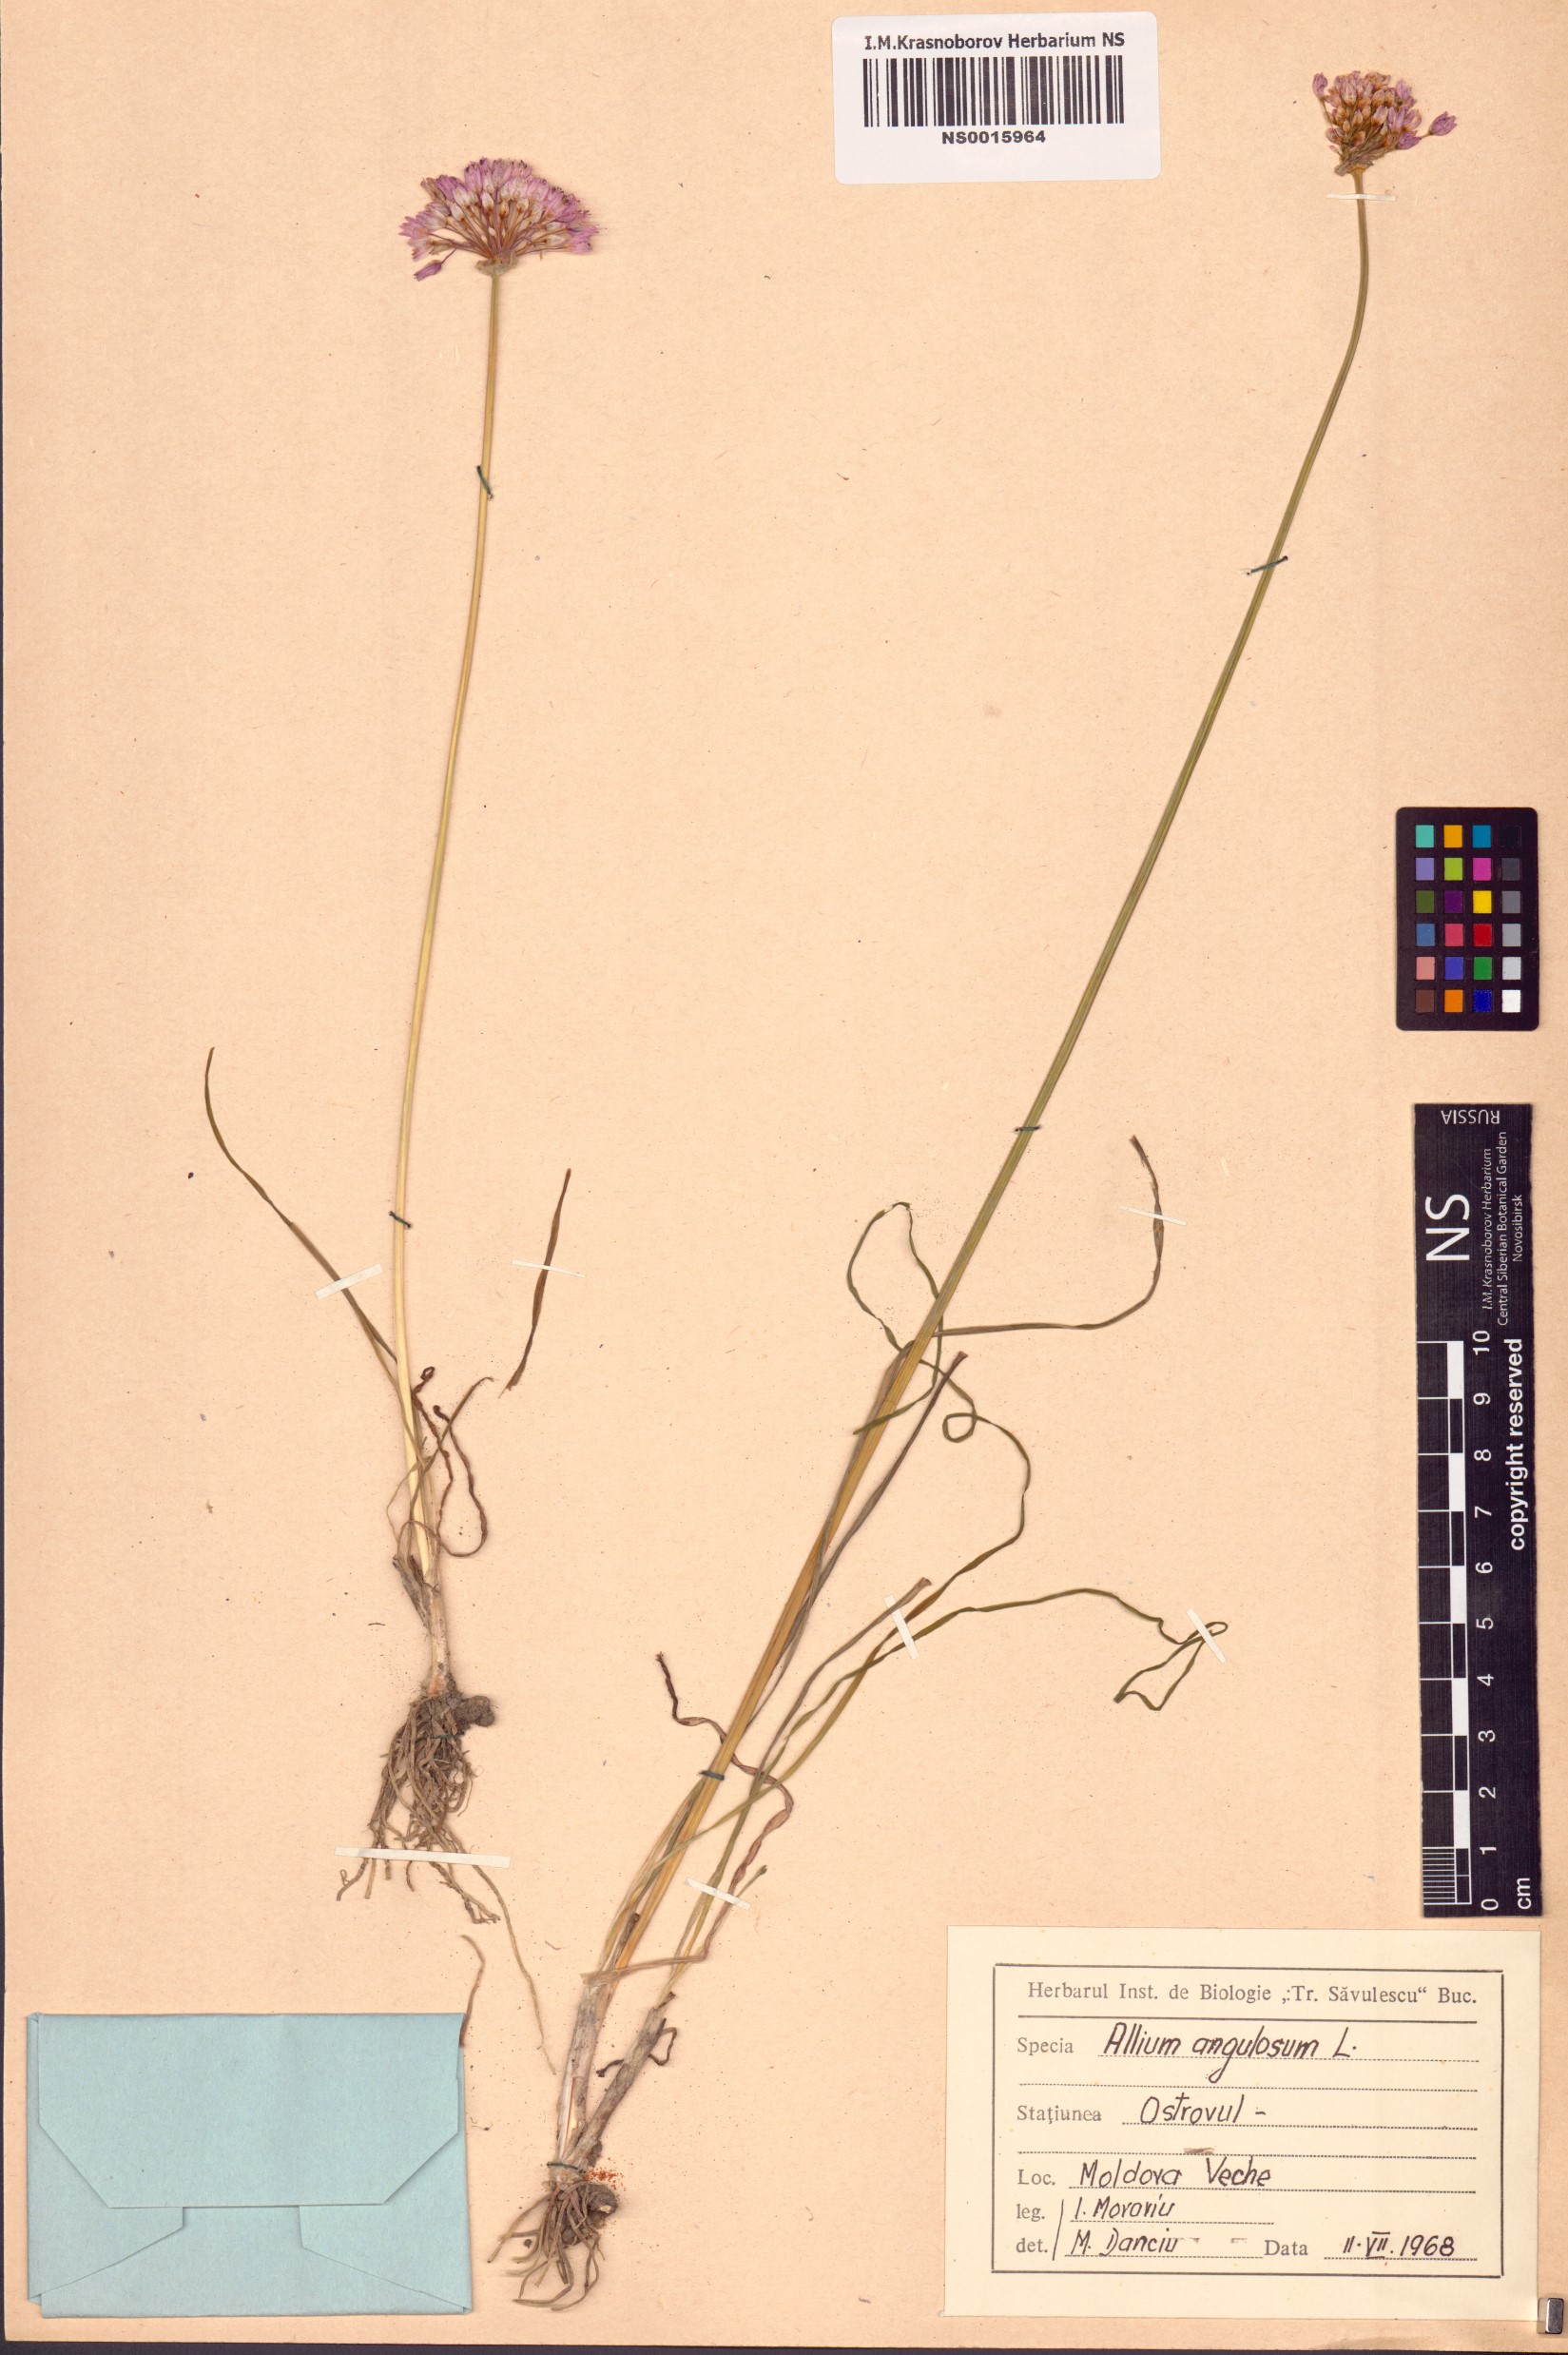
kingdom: Plantae
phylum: Tracheophyta
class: Liliopsida
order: Asparagales
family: Amaryllidaceae
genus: Allium
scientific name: Allium angulosum
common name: Mouse garlic
